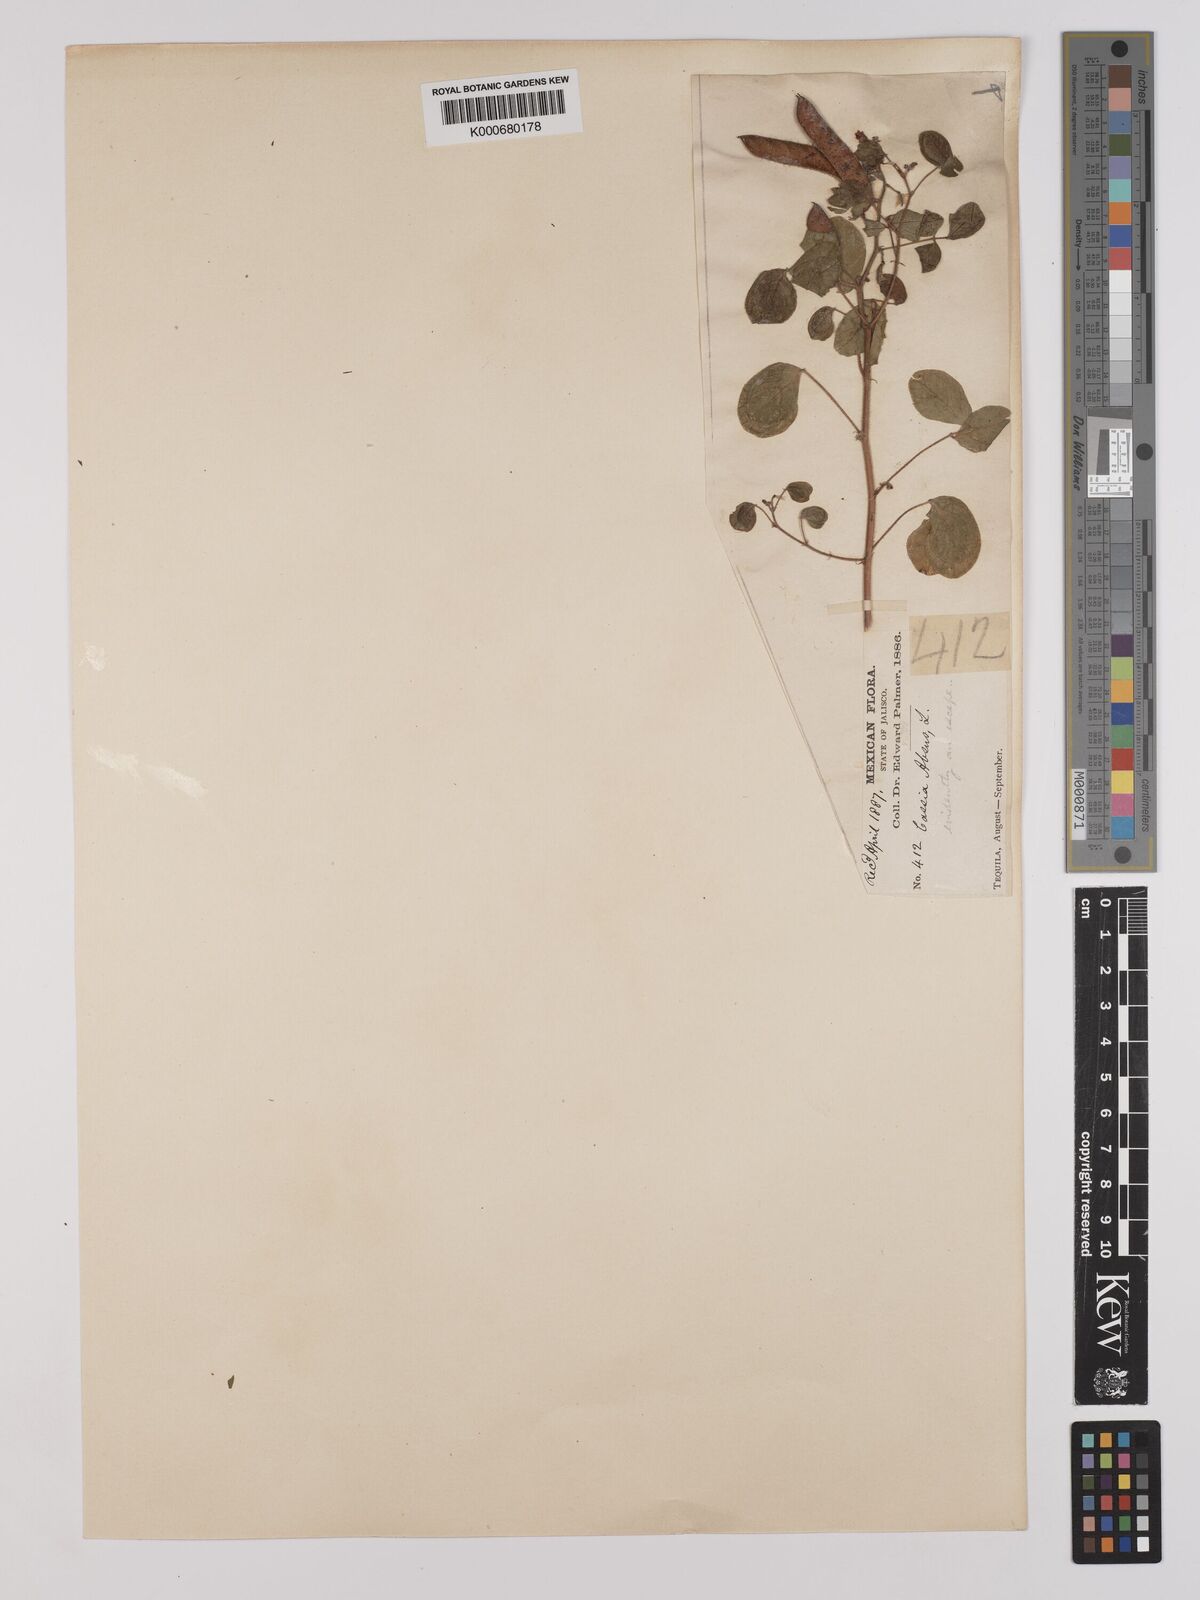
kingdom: Plantae
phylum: Tracheophyta
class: Magnoliopsida
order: Fabales
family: Fabaceae
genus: Chamaecrista
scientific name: Chamaecrista
